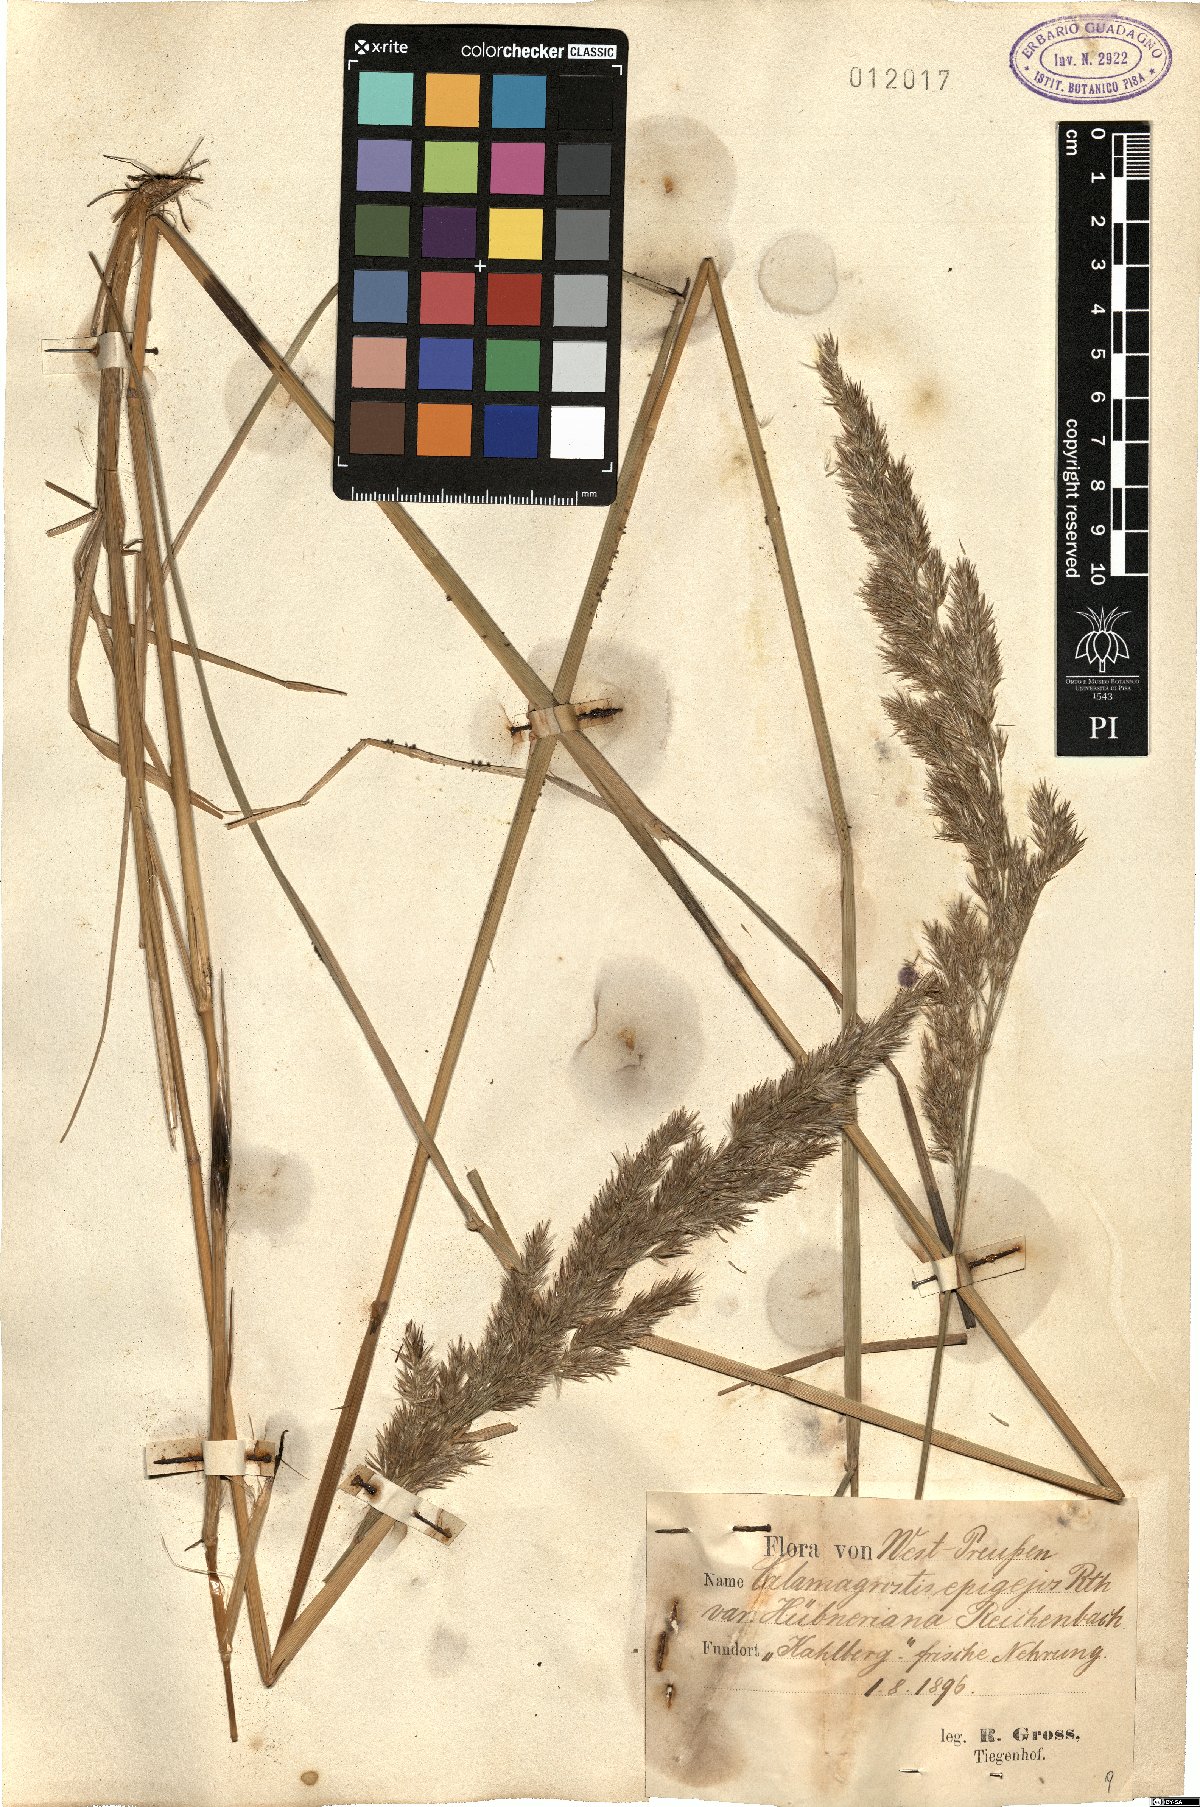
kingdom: Plantae
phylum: Tracheophyta
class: Liliopsida
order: Poales
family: Poaceae
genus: Calamagrostis
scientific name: Calamagrostis epigejos
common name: Wood small-reed
